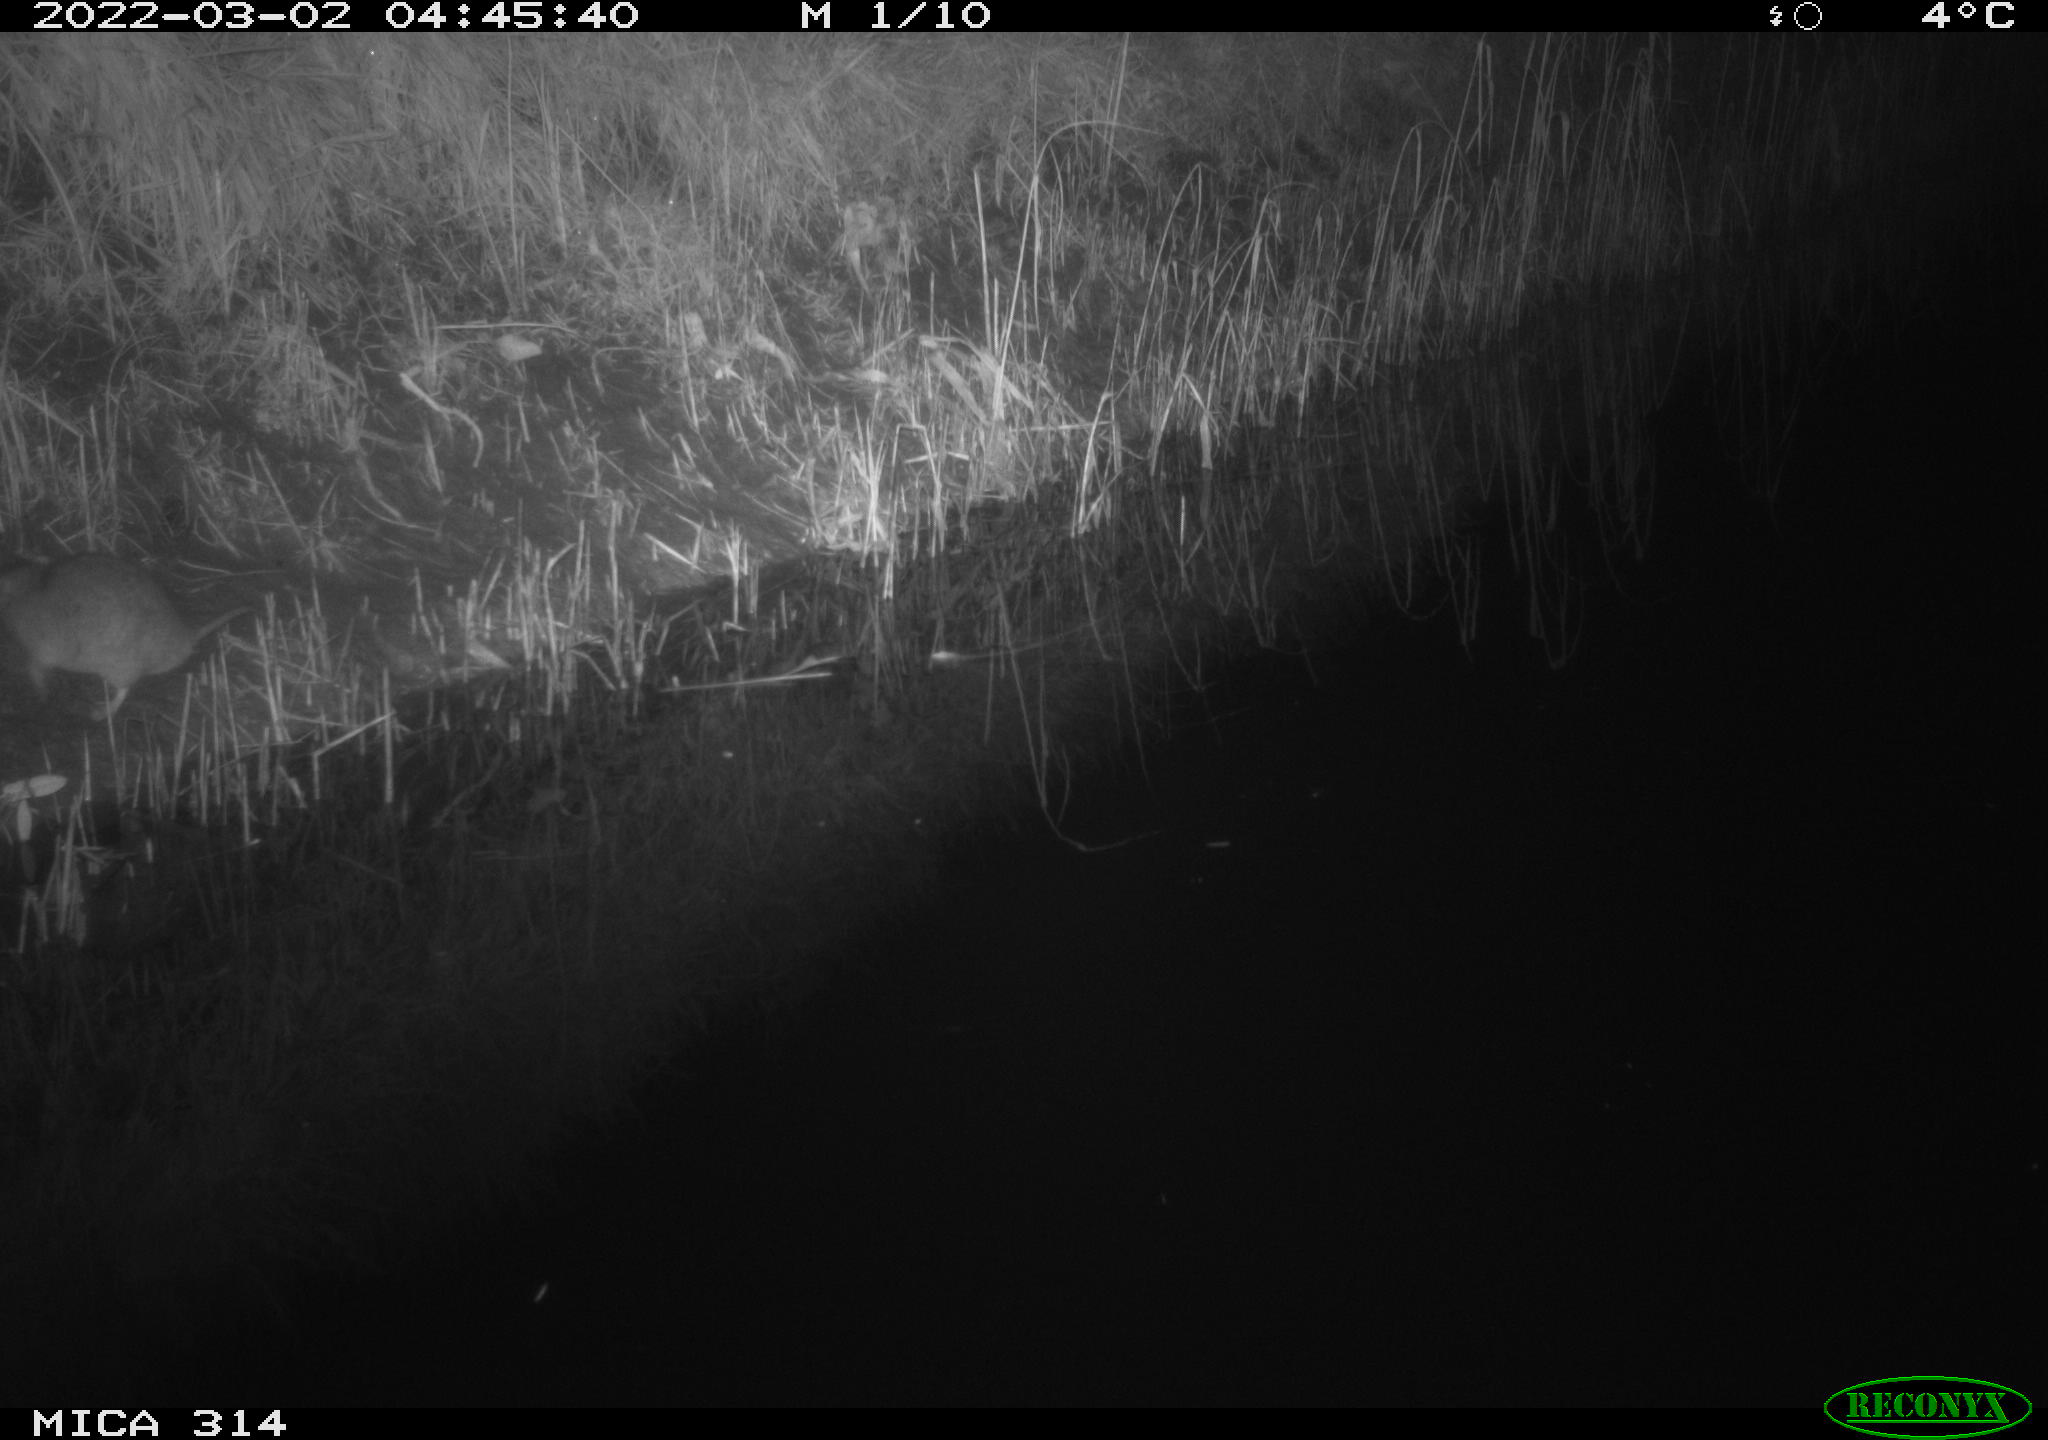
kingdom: Animalia
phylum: Chordata
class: Mammalia
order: Rodentia
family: Muridae
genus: Rattus
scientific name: Rattus norvegicus
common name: Brown rat
